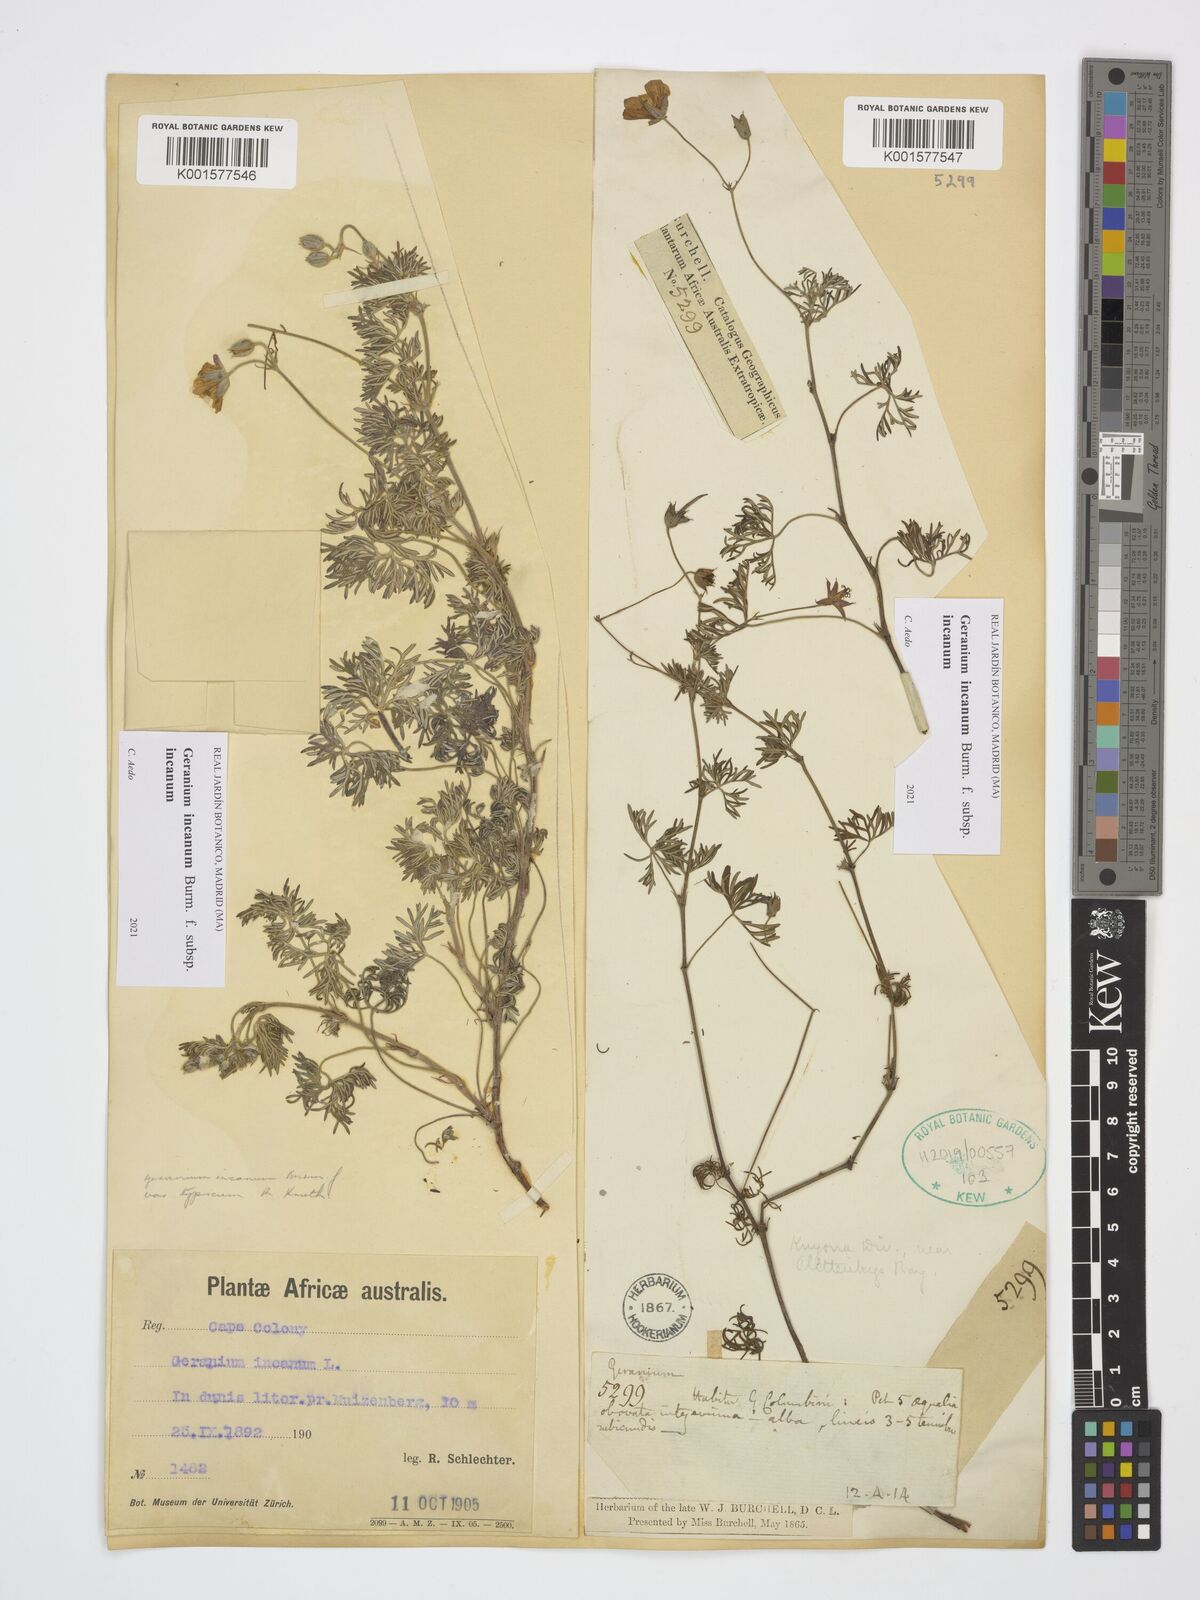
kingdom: Plantae
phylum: Tracheophyta
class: Magnoliopsida
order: Geraniales
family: Geraniaceae
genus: Geranium
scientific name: Geranium incanum
